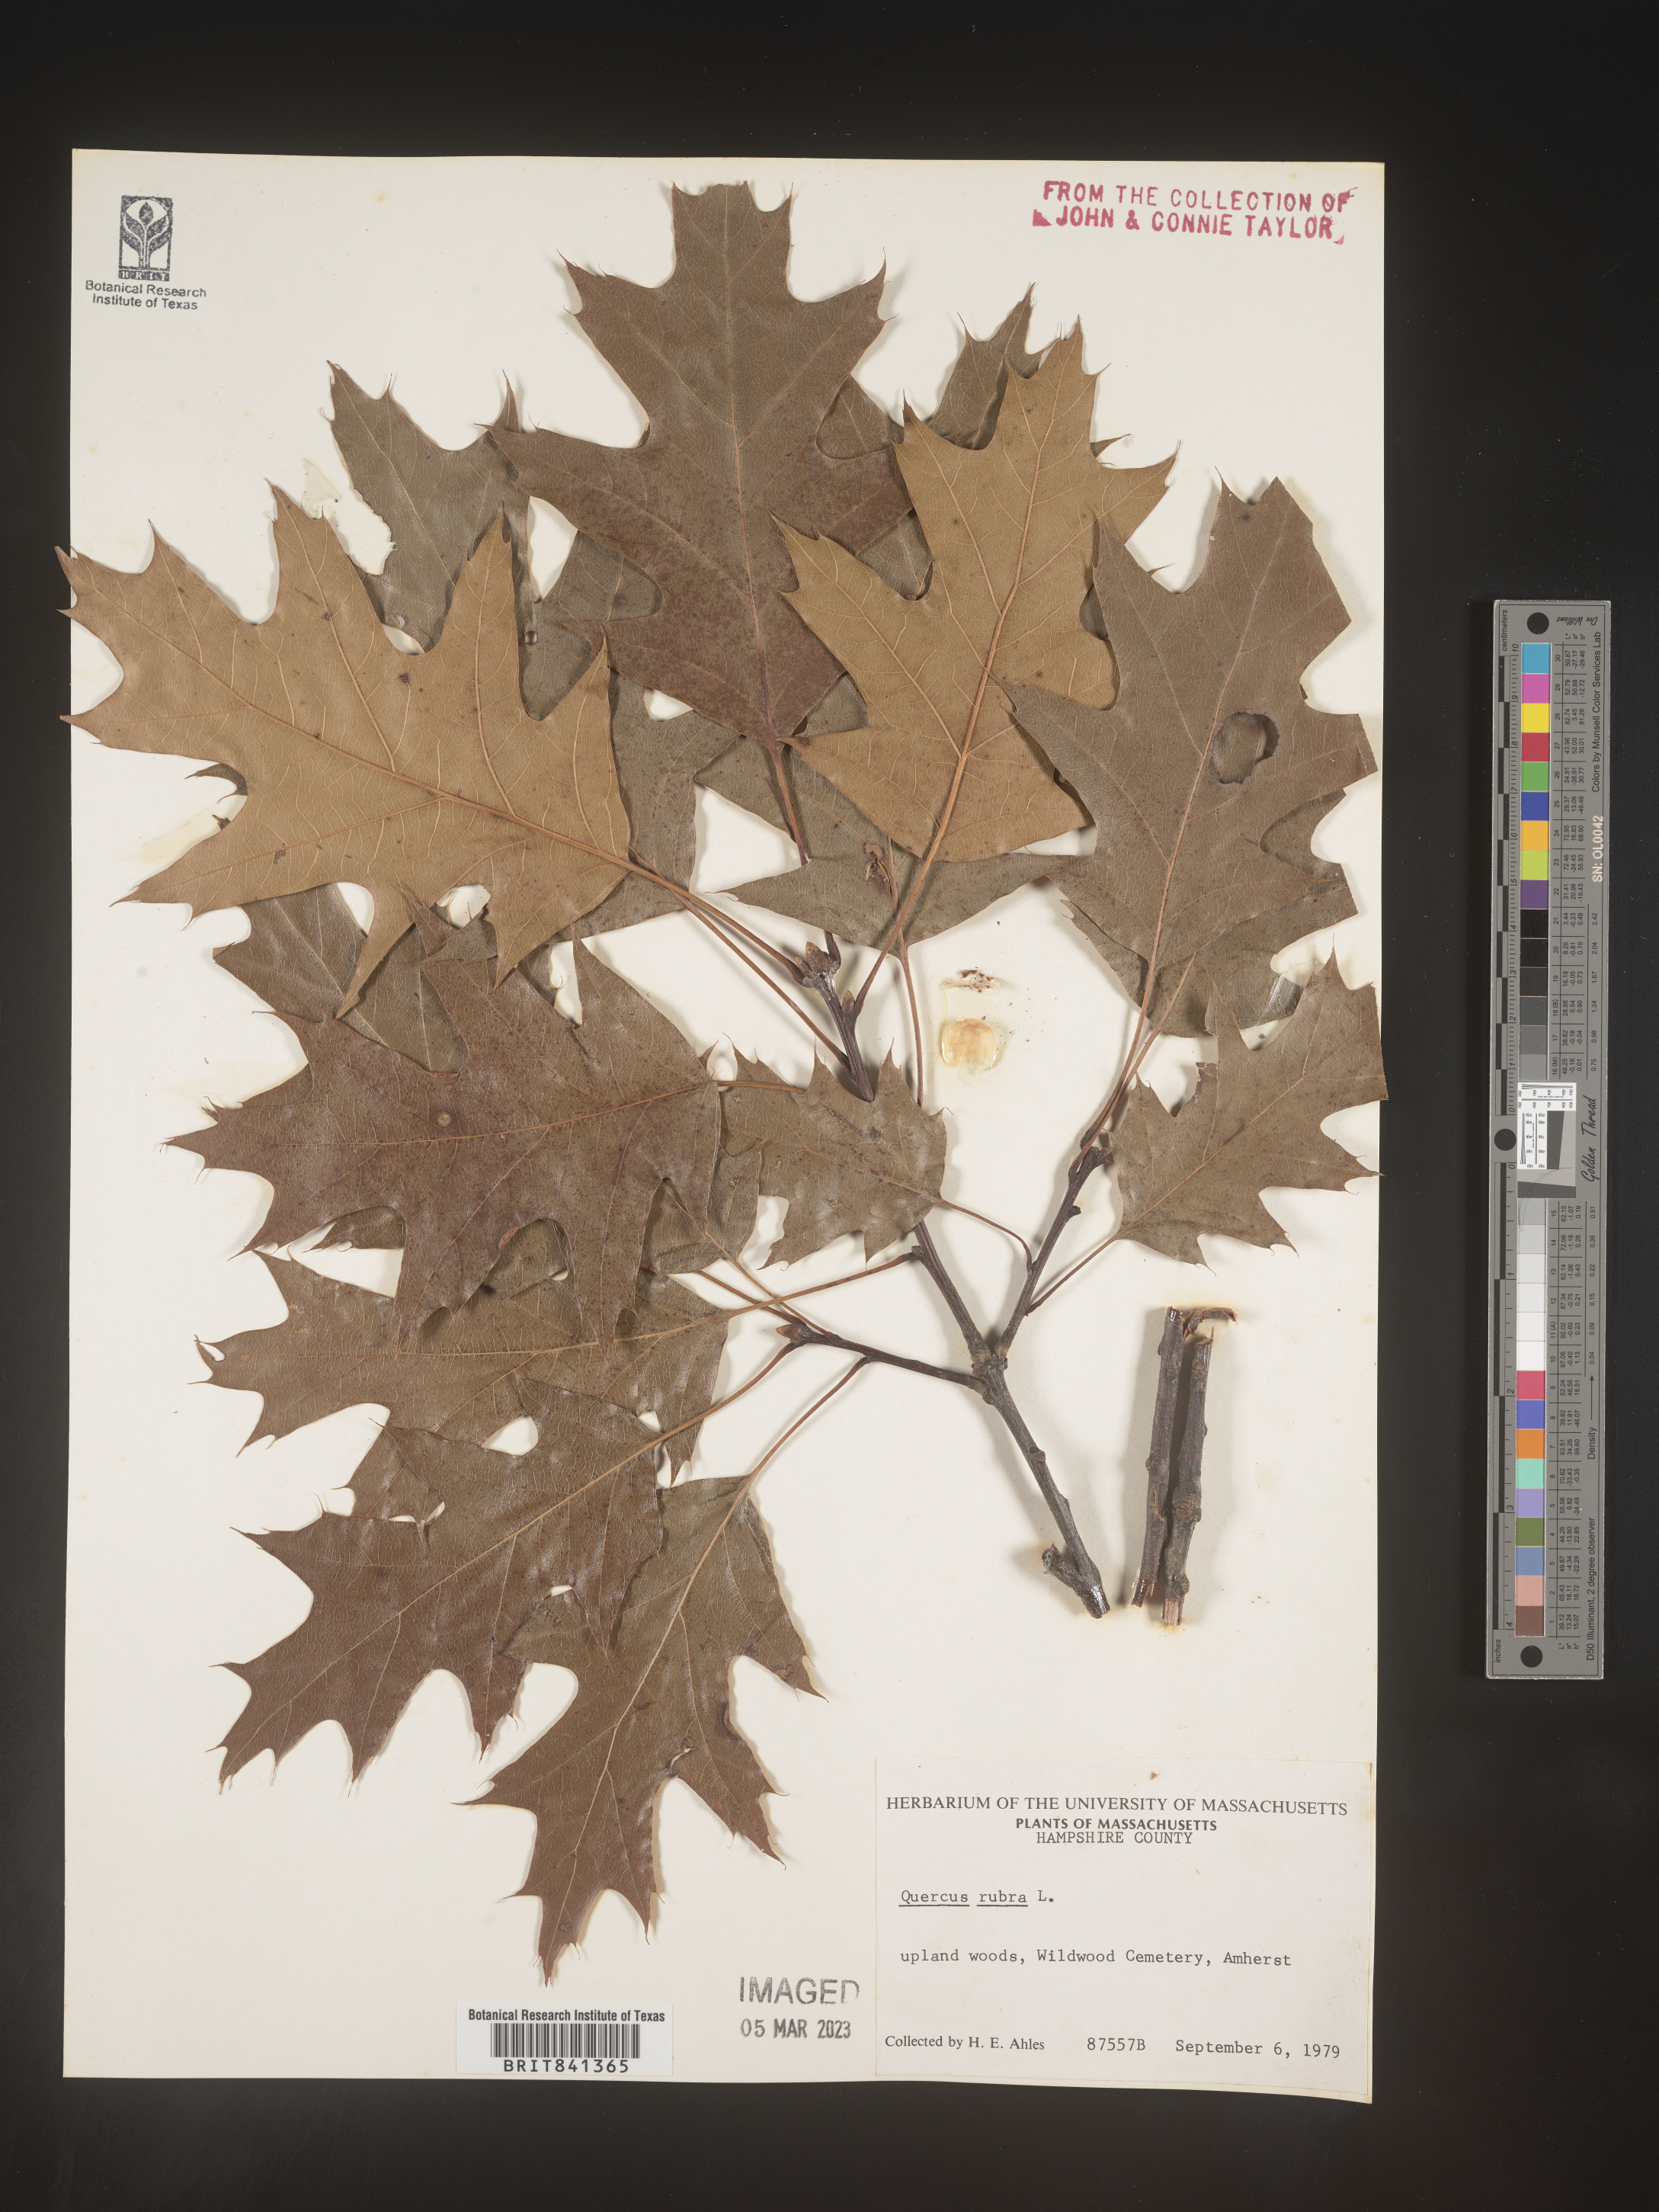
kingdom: Plantae
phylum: Tracheophyta
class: Magnoliopsida
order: Fagales
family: Fagaceae
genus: Quercus
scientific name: Quercus rubra
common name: Red oak
